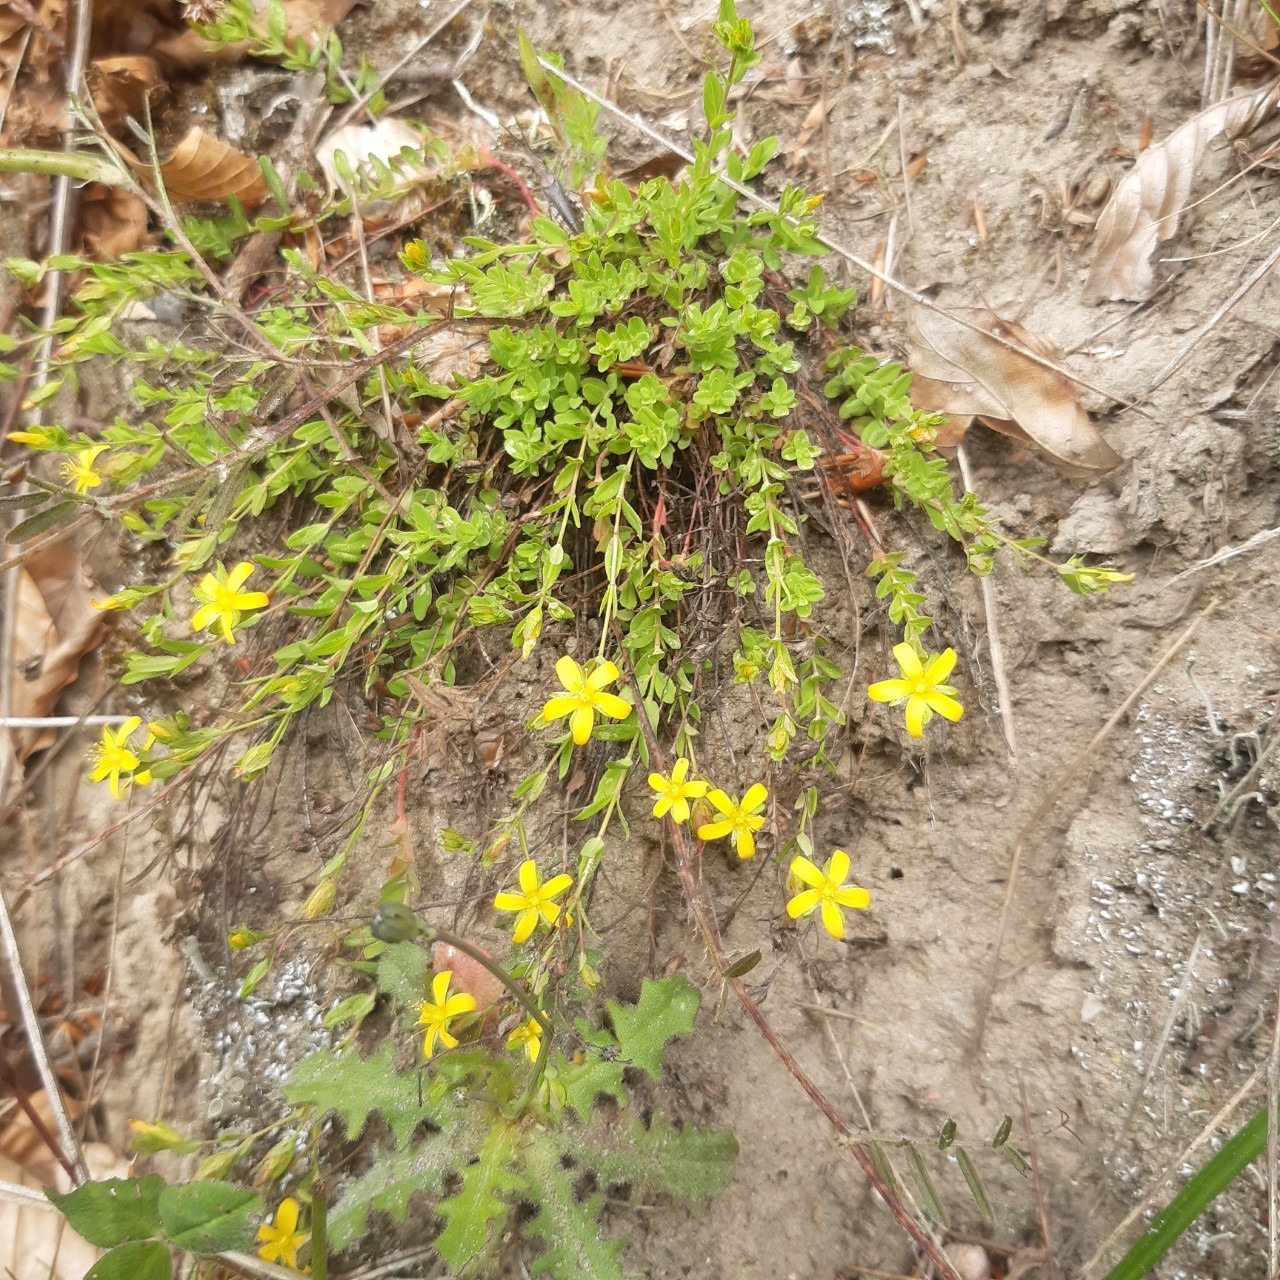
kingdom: Plantae
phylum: Tracheophyta
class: Magnoliopsida
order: Malpighiales
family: Hypericaceae
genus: Hypericum
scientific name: Hypericum humifusum
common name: Dværg-perikon
